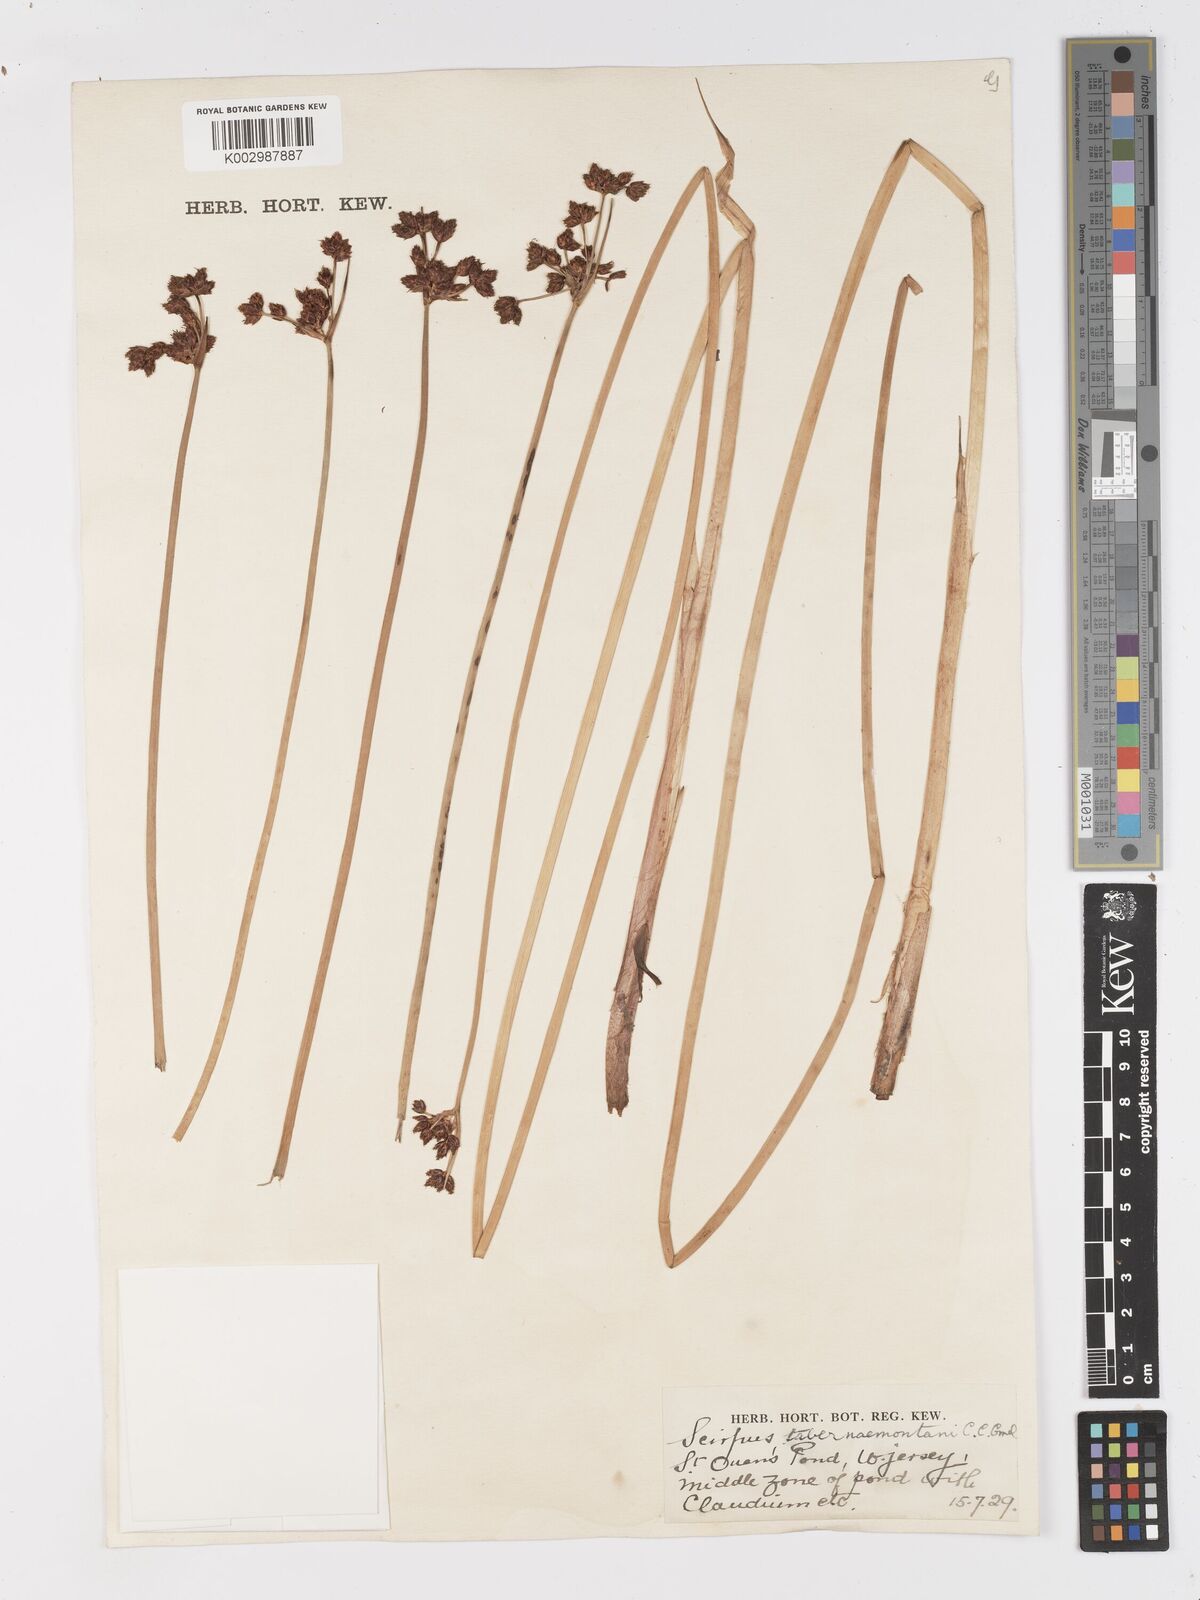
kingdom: Plantae
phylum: Tracheophyta
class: Liliopsida
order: Poales
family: Cyperaceae
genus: Schoenoplectus
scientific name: Schoenoplectus tabernaemontani
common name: Grey club-rush
